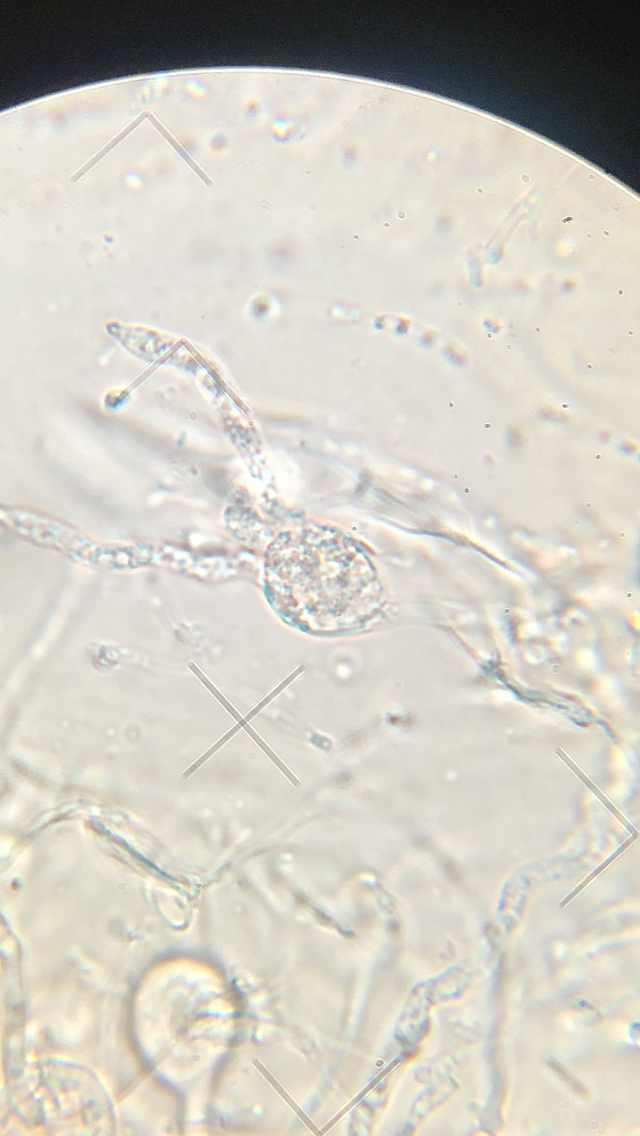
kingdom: Fungi
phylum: Basidiomycota
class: Agaricomycetes
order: Auriculariales
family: Hyaloriaceae
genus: Myxarium
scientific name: Myxarium
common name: bævretop
